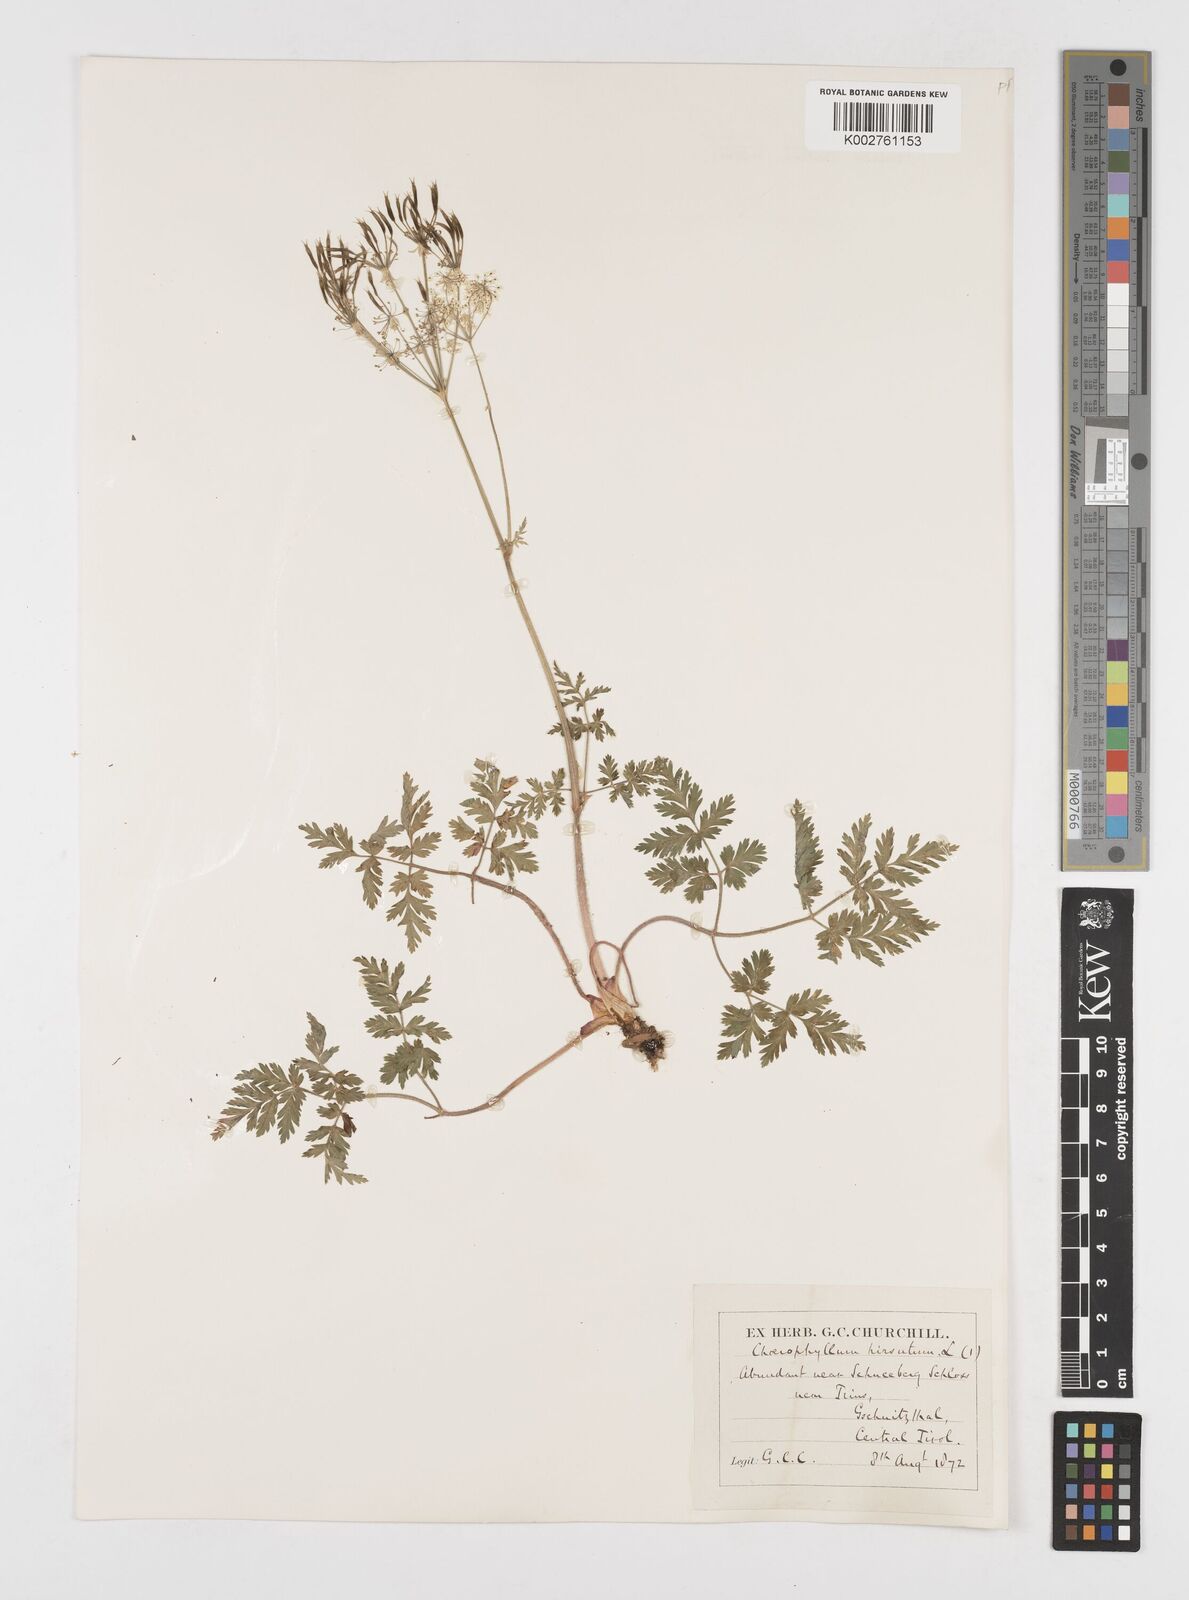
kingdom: Plantae
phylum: Tracheophyta
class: Magnoliopsida
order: Apiales
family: Apiaceae
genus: Chaerophyllum
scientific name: Chaerophyllum hirsutum
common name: Hairy chervil
